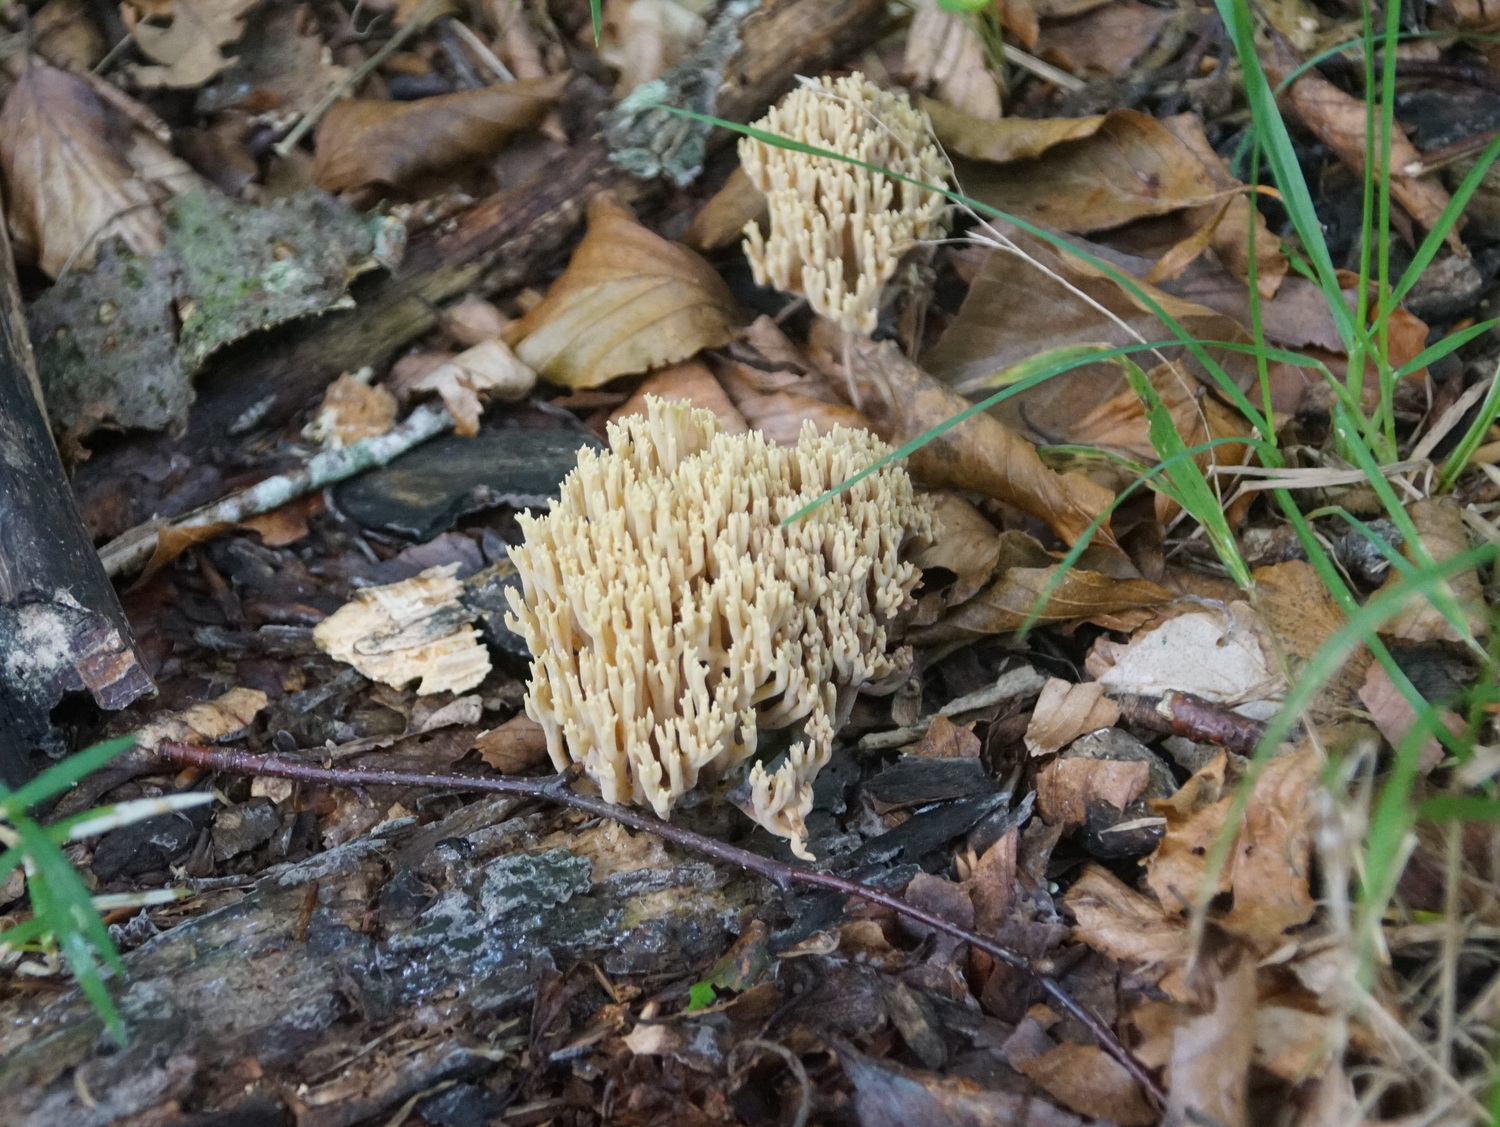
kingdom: Fungi
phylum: Basidiomycota
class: Agaricomycetes
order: Gomphales
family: Gomphaceae
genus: Ramaria
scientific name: Ramaria stricta
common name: rank koralsvamp
